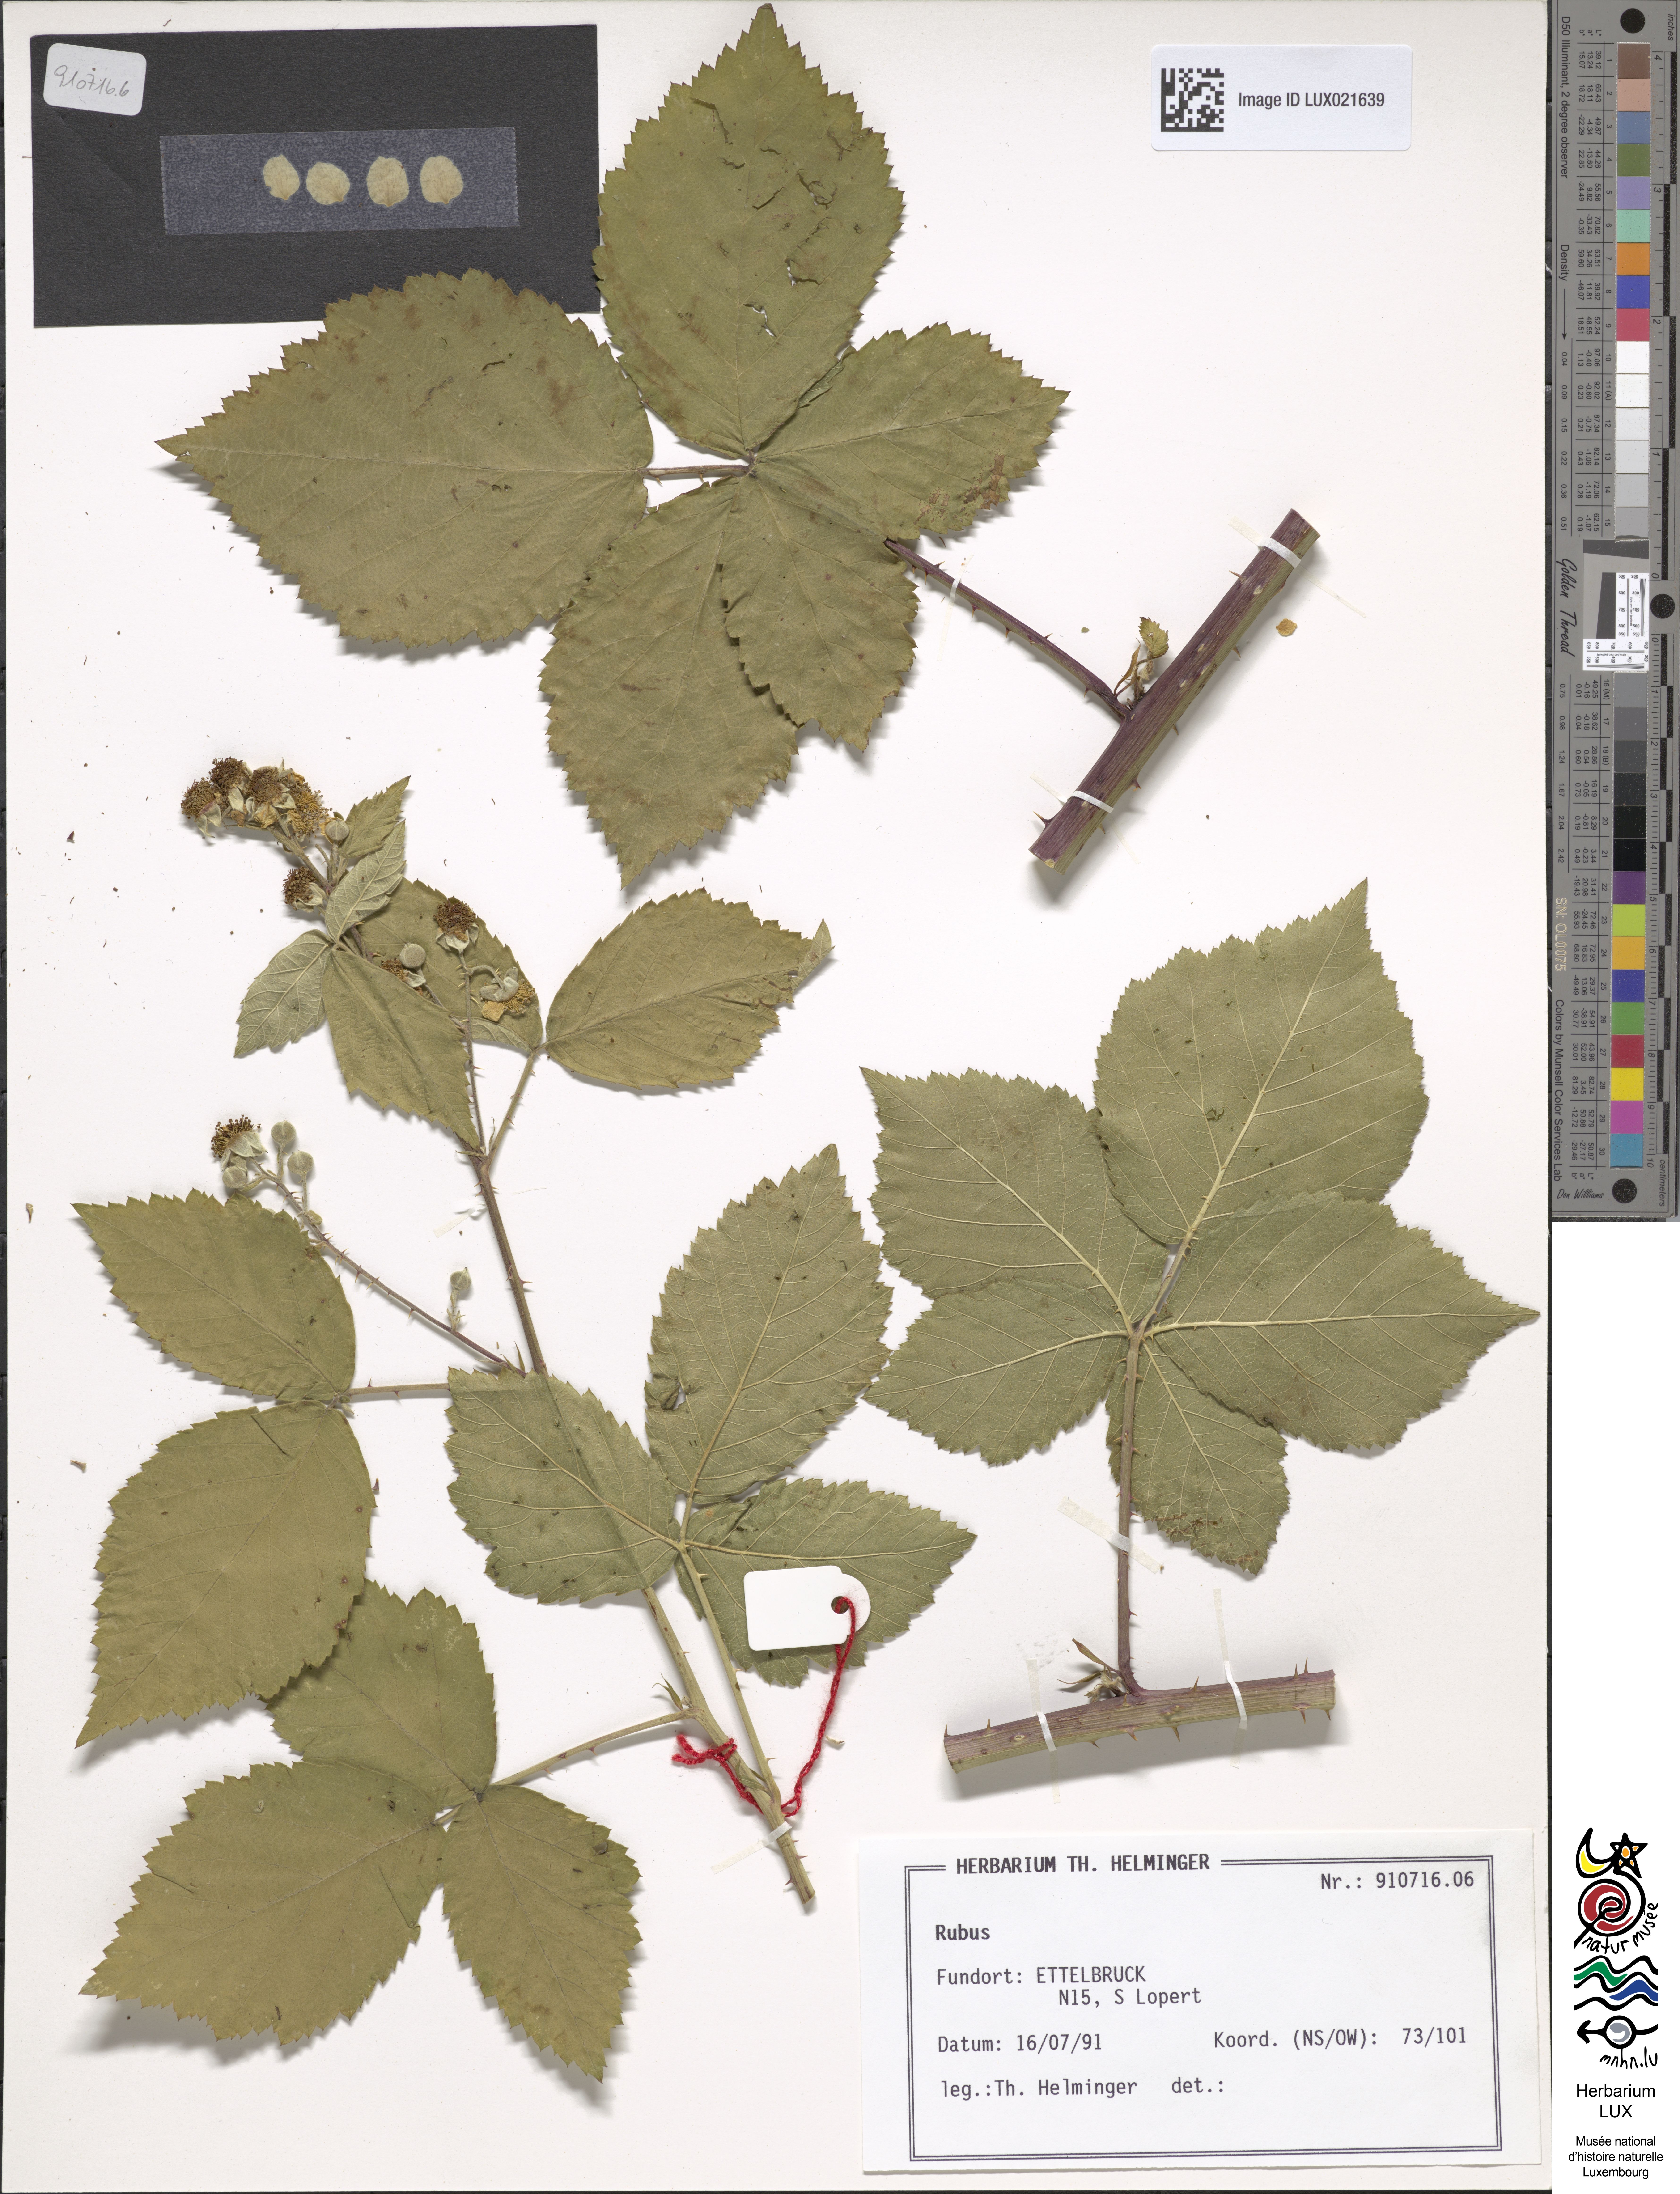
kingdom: Plantae
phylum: Tracheophyta
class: Magnoliopsida
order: Rosales
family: Rosaceae
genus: Rubus
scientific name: Rubus
